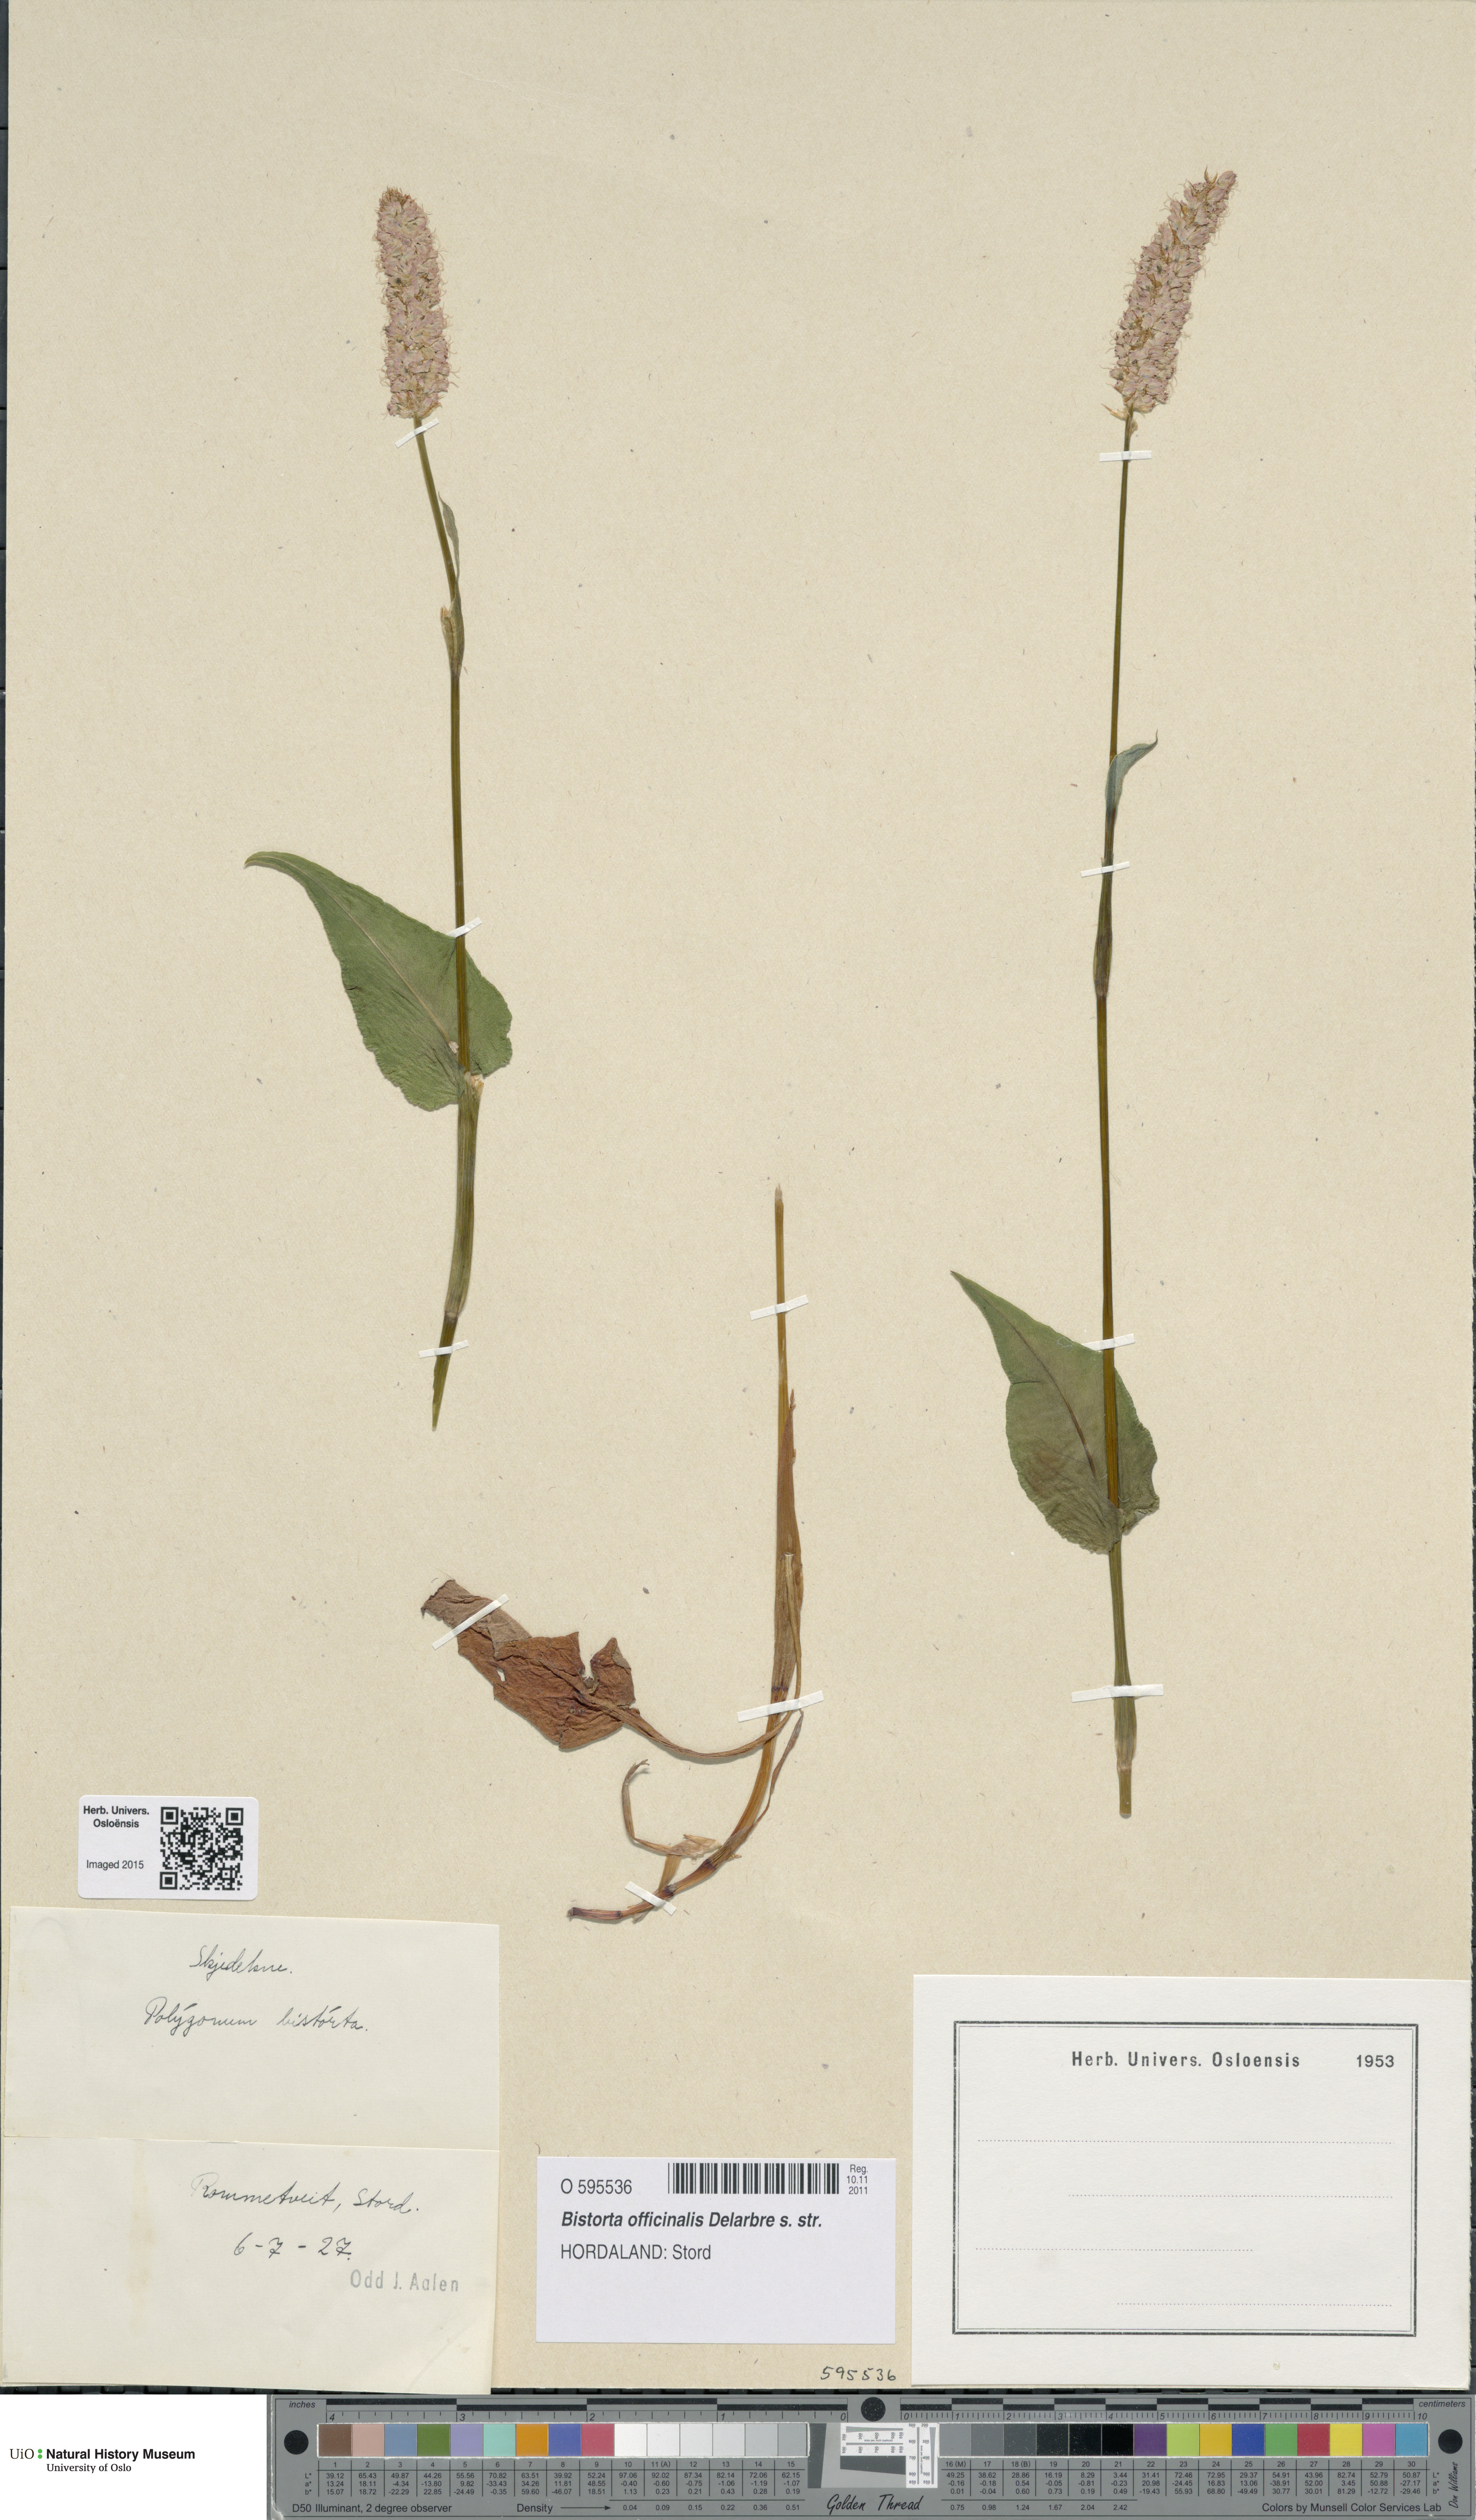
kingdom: Plantae
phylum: Tracheophyta
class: Magnoliopsida
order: Caryophyllales
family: Polygonaceae
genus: Bistorta
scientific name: Bistorta officinalis
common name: Common bistort
